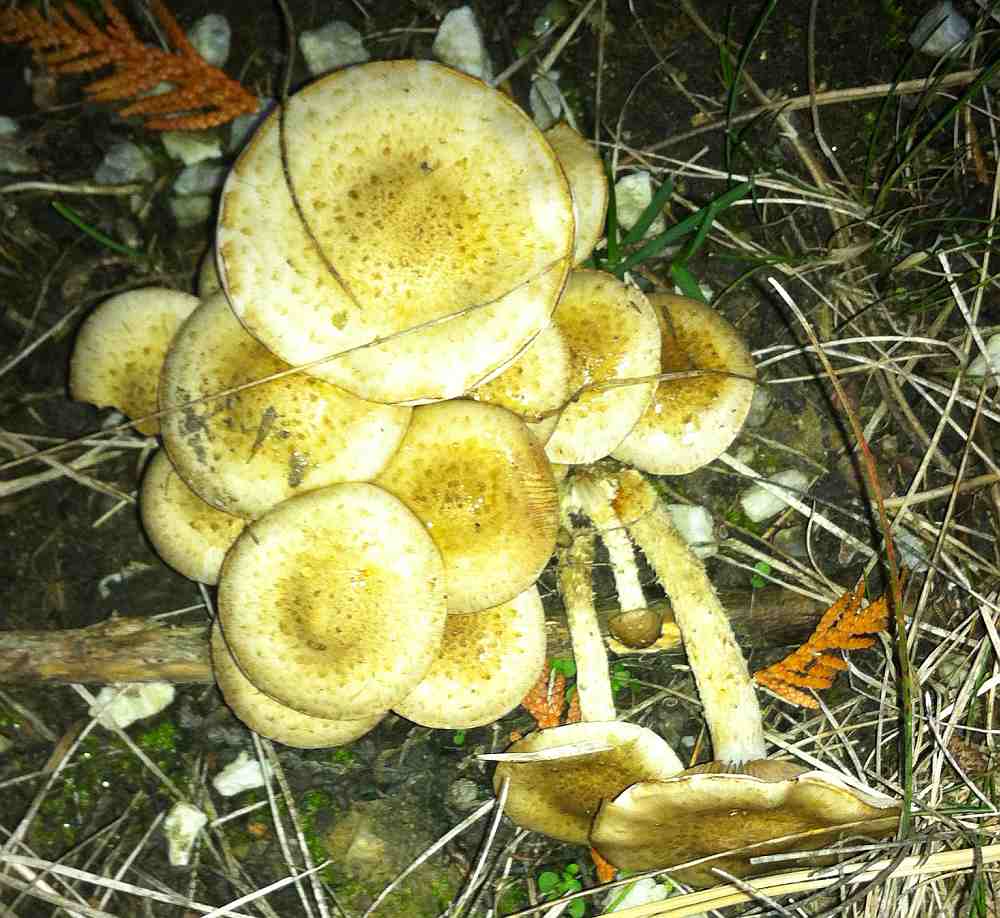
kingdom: Fungi
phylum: Basidiomycota
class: Agaricomycetes
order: Agaricales
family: Strophariaceae
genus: Pholiota
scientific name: Pholiota gummosa
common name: grøngul skælhat
